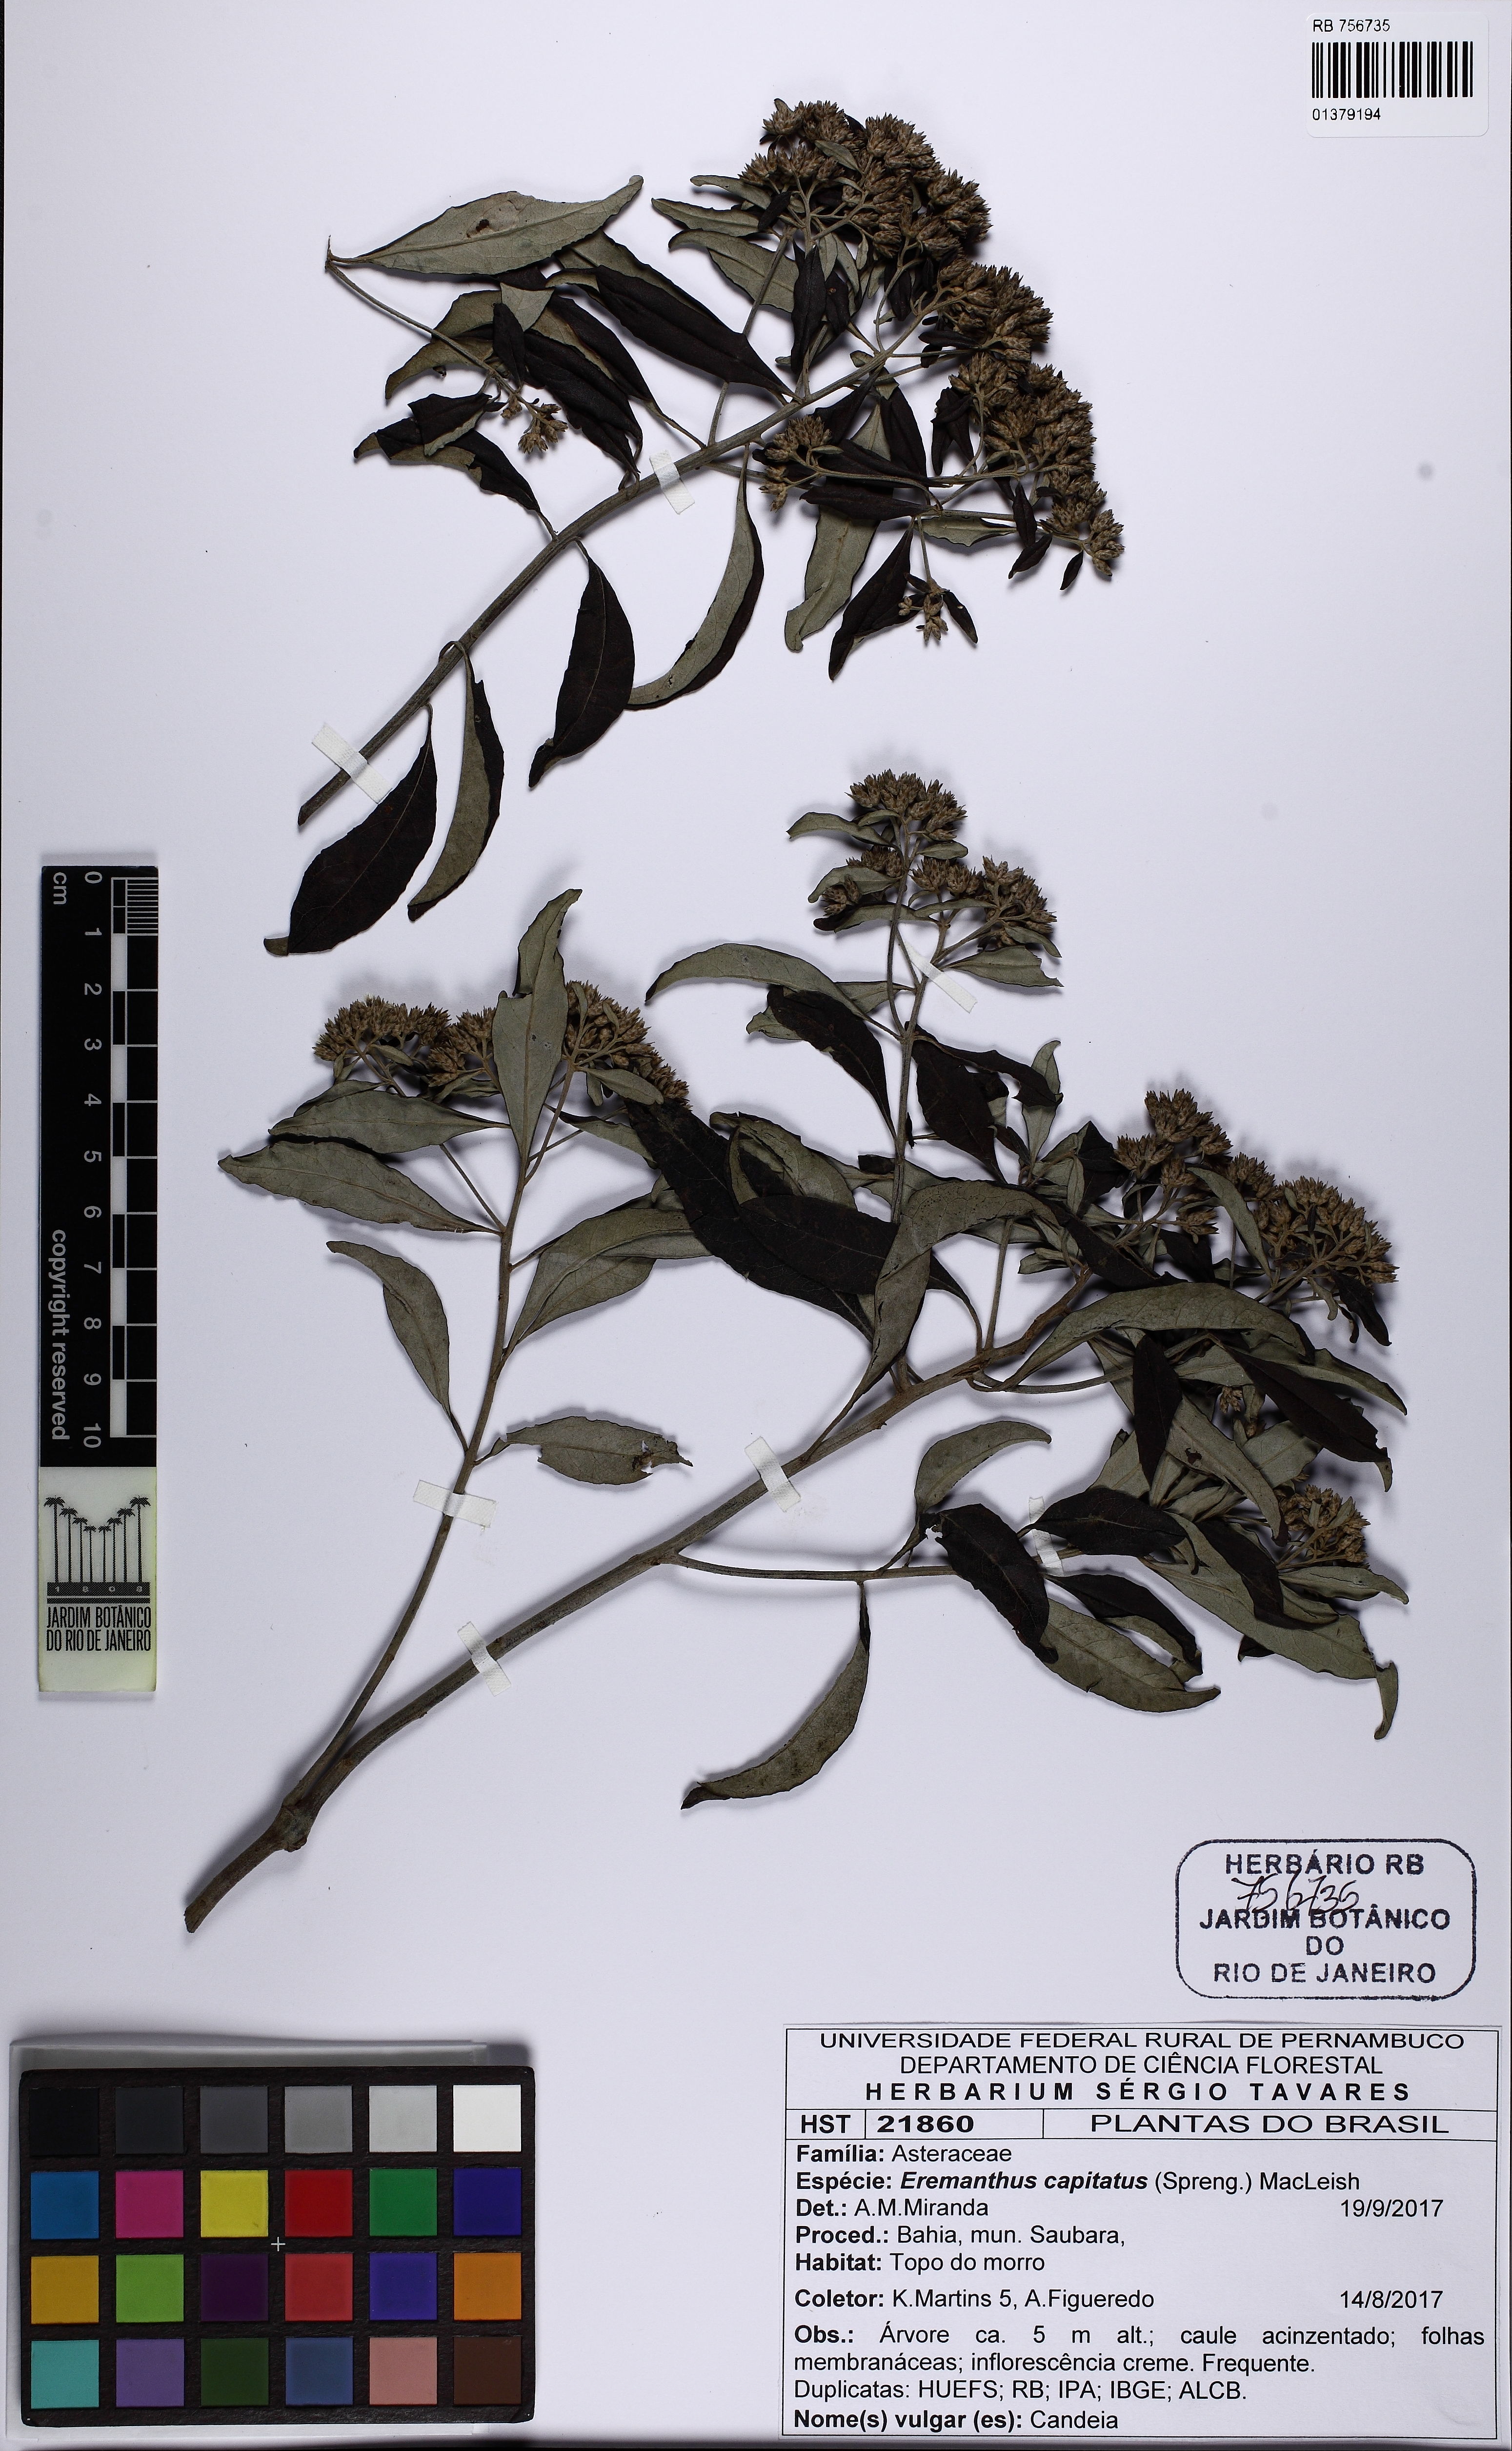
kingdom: Plantae
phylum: Tracheophyta
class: Magnoliopsida
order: Asterales
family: Asteraceae
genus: Eremanthus
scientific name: Eremanthus capitatus
